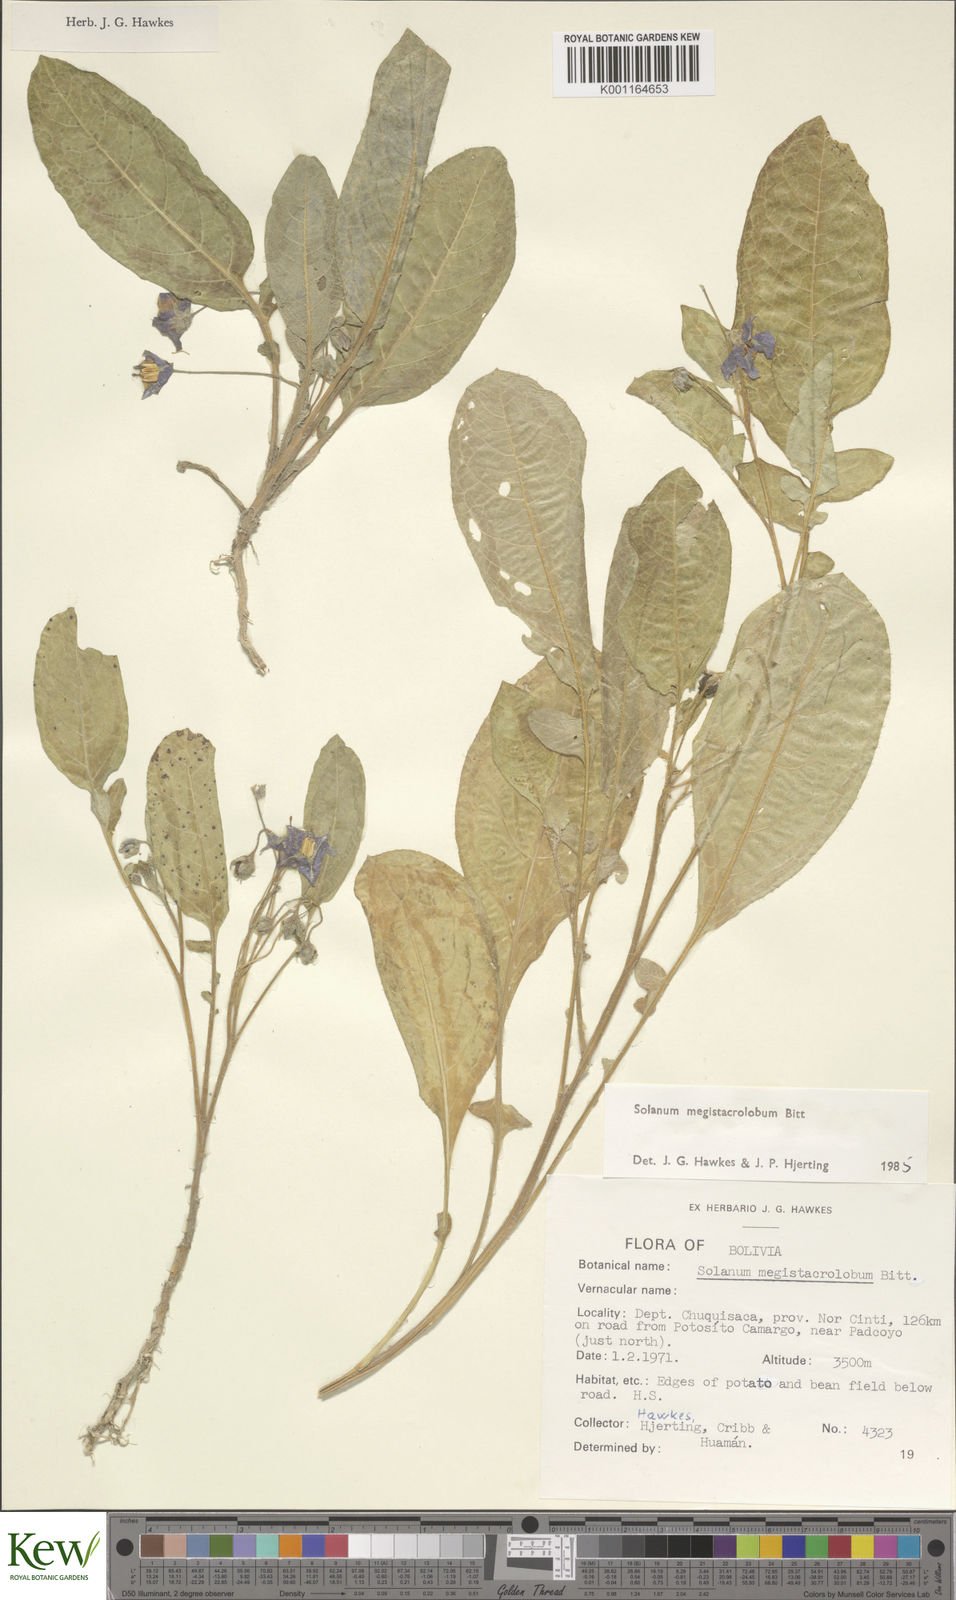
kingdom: Plantae
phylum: Tracheophyta
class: Magnoliopsida
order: Solanales
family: Solanaceae
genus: Solanum
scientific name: Solanum boliviense
